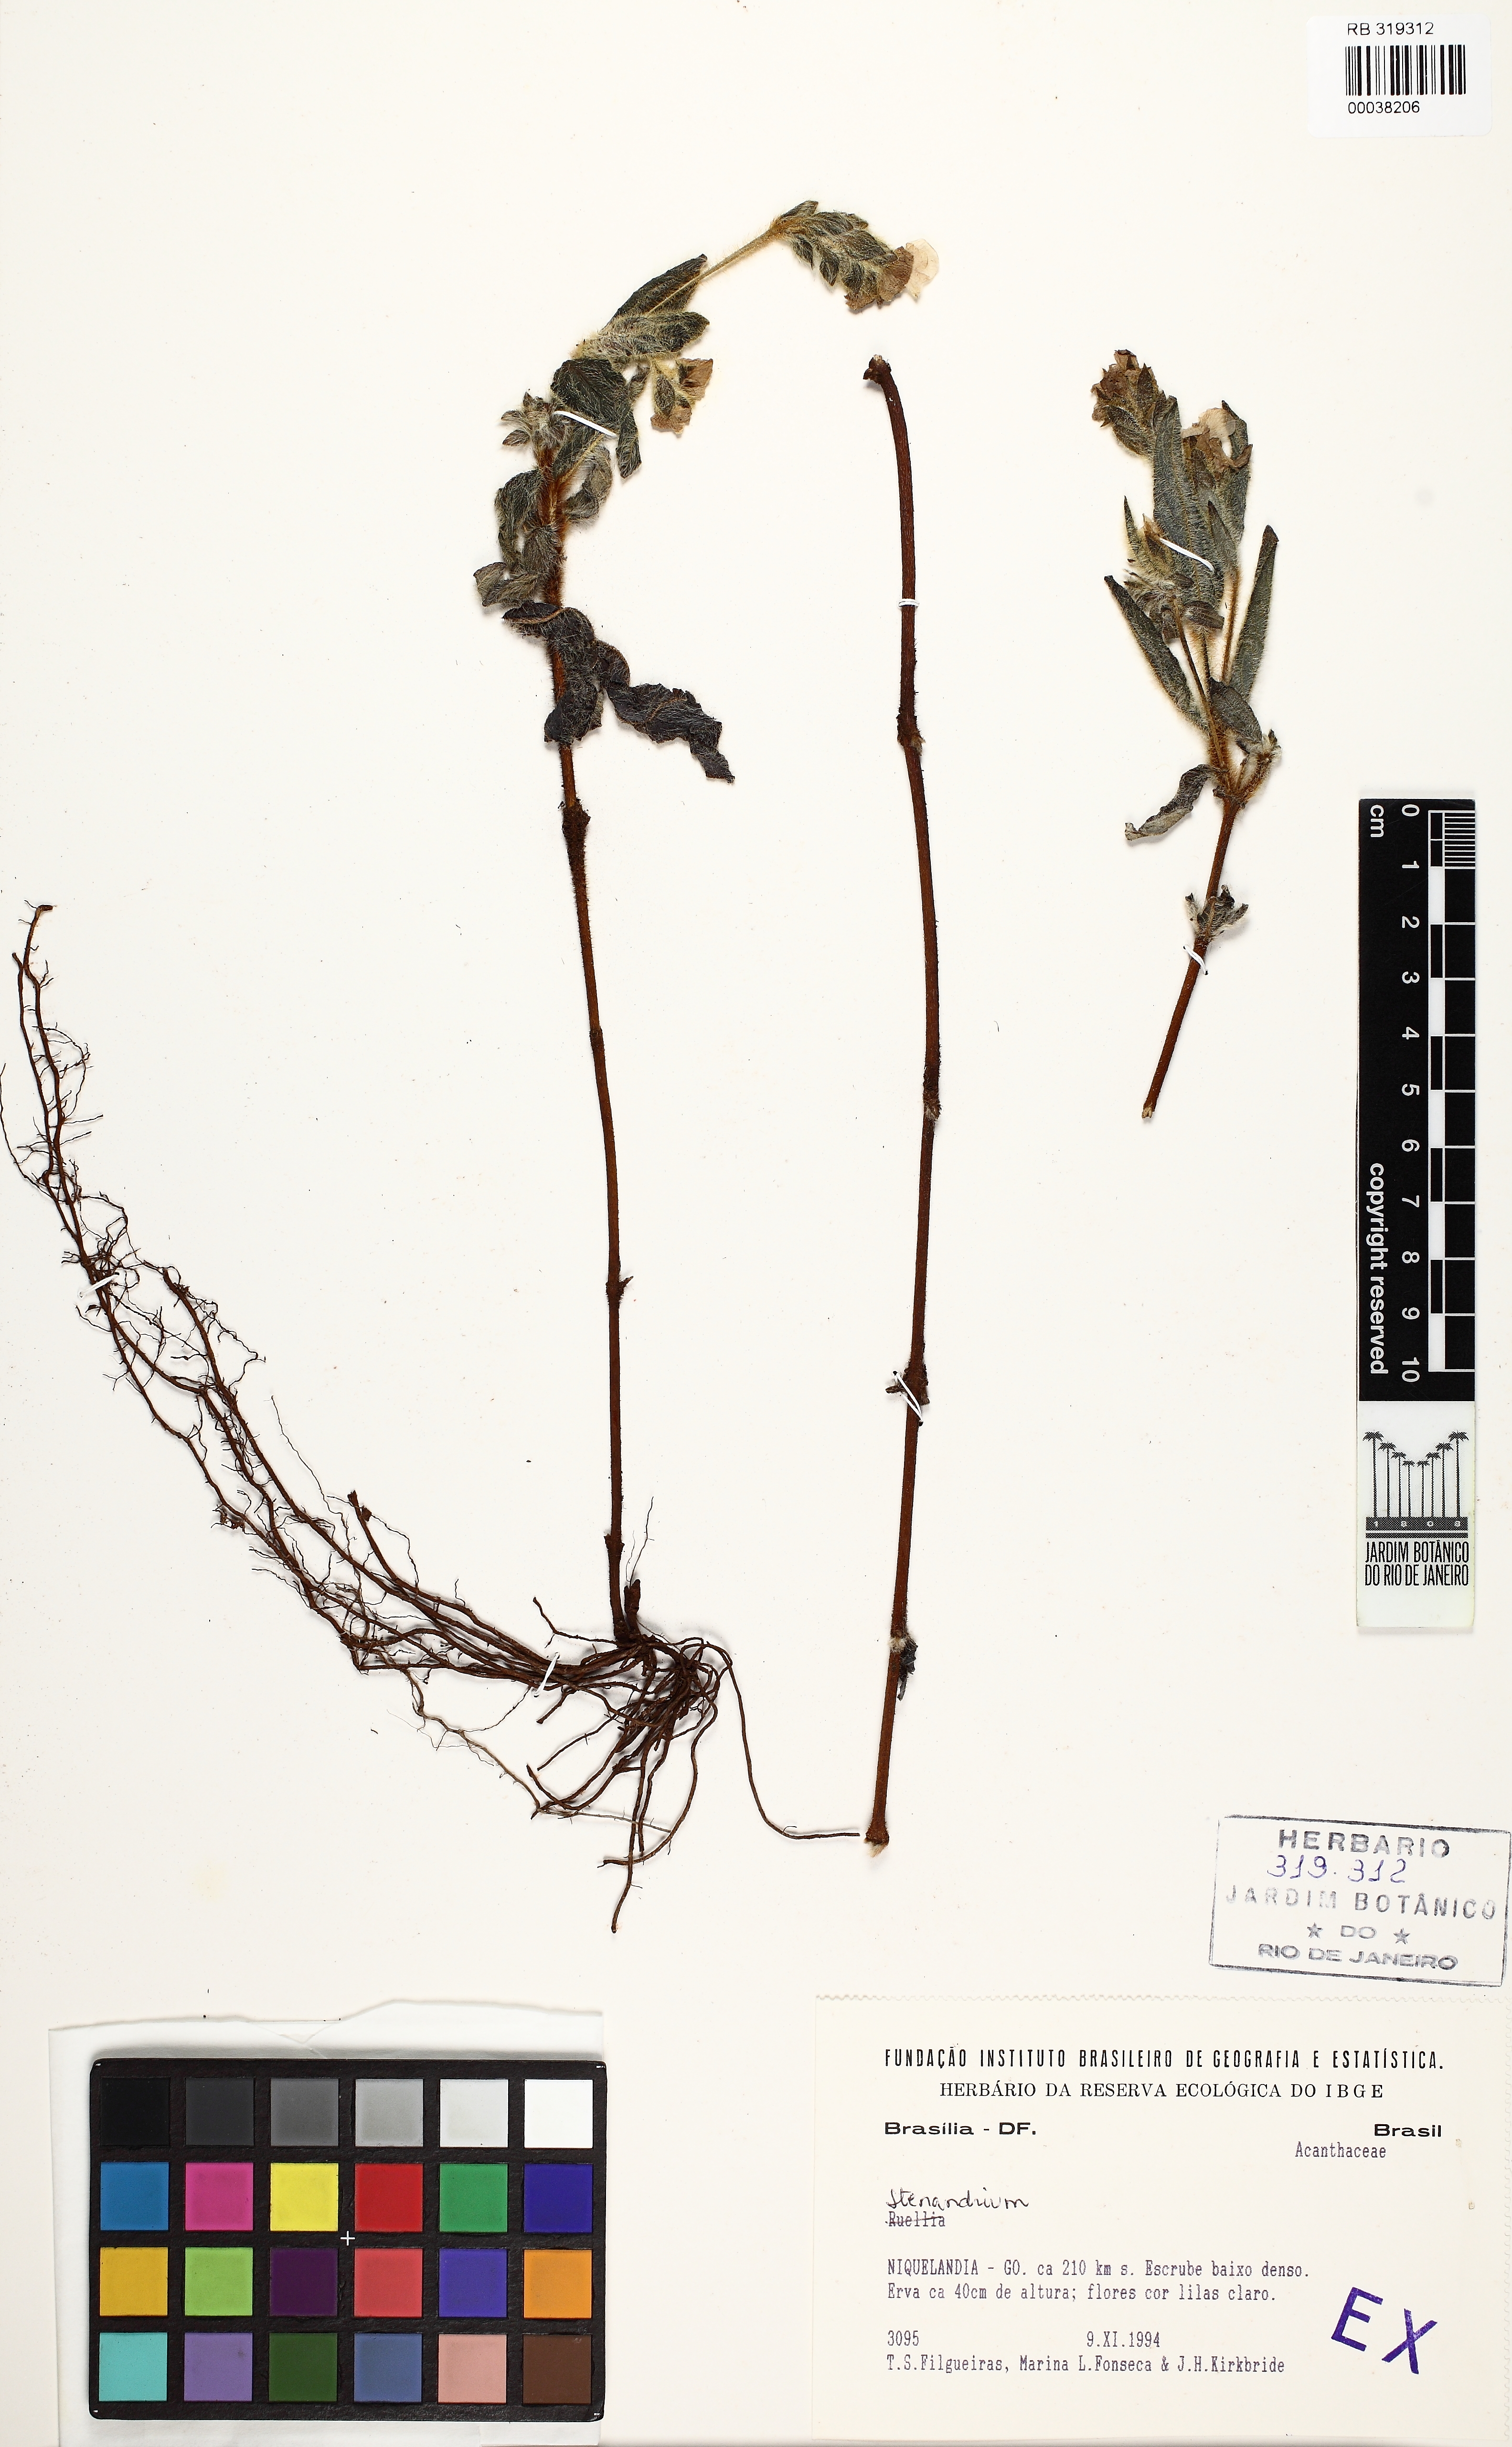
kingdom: Plantae
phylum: Tracheophyta
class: Magnoliopsida
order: Lamiales
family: Acanthaceae
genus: Stenandrium
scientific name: Stenandrium
